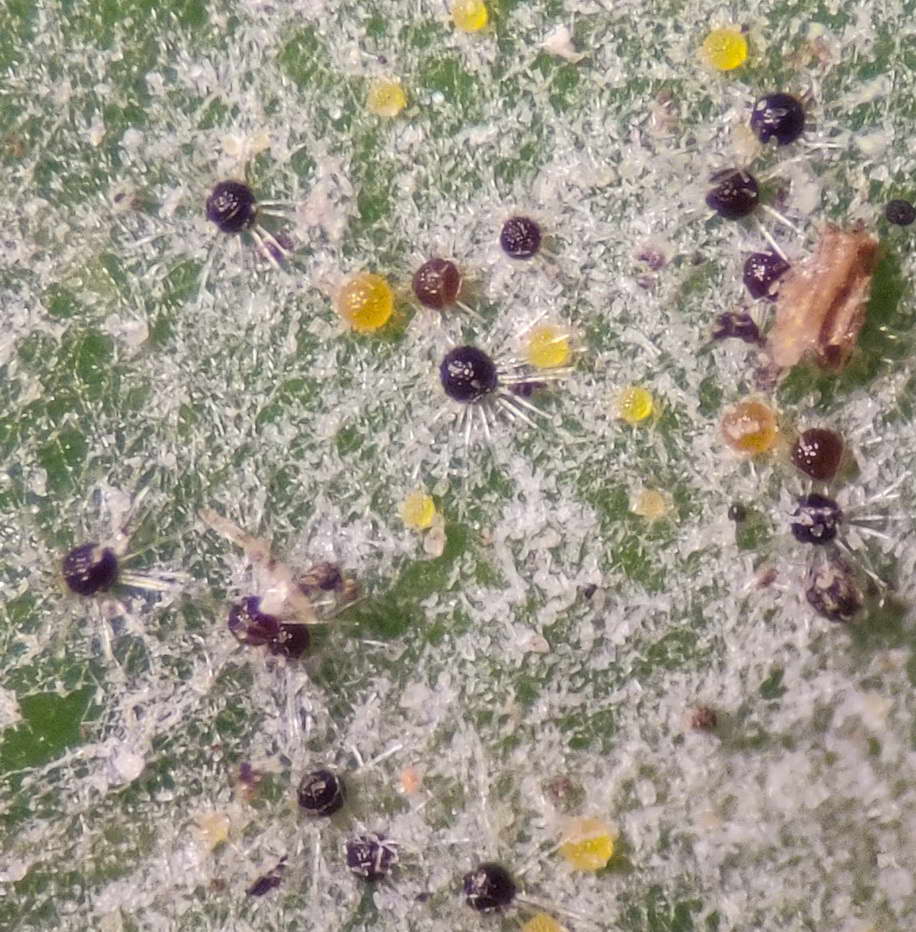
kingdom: Fungi
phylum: Ascomycota
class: Leotiomycetes
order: Helotiales
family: Erysiphaceae
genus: Erysiphe
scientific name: Erysiphe berberidis
